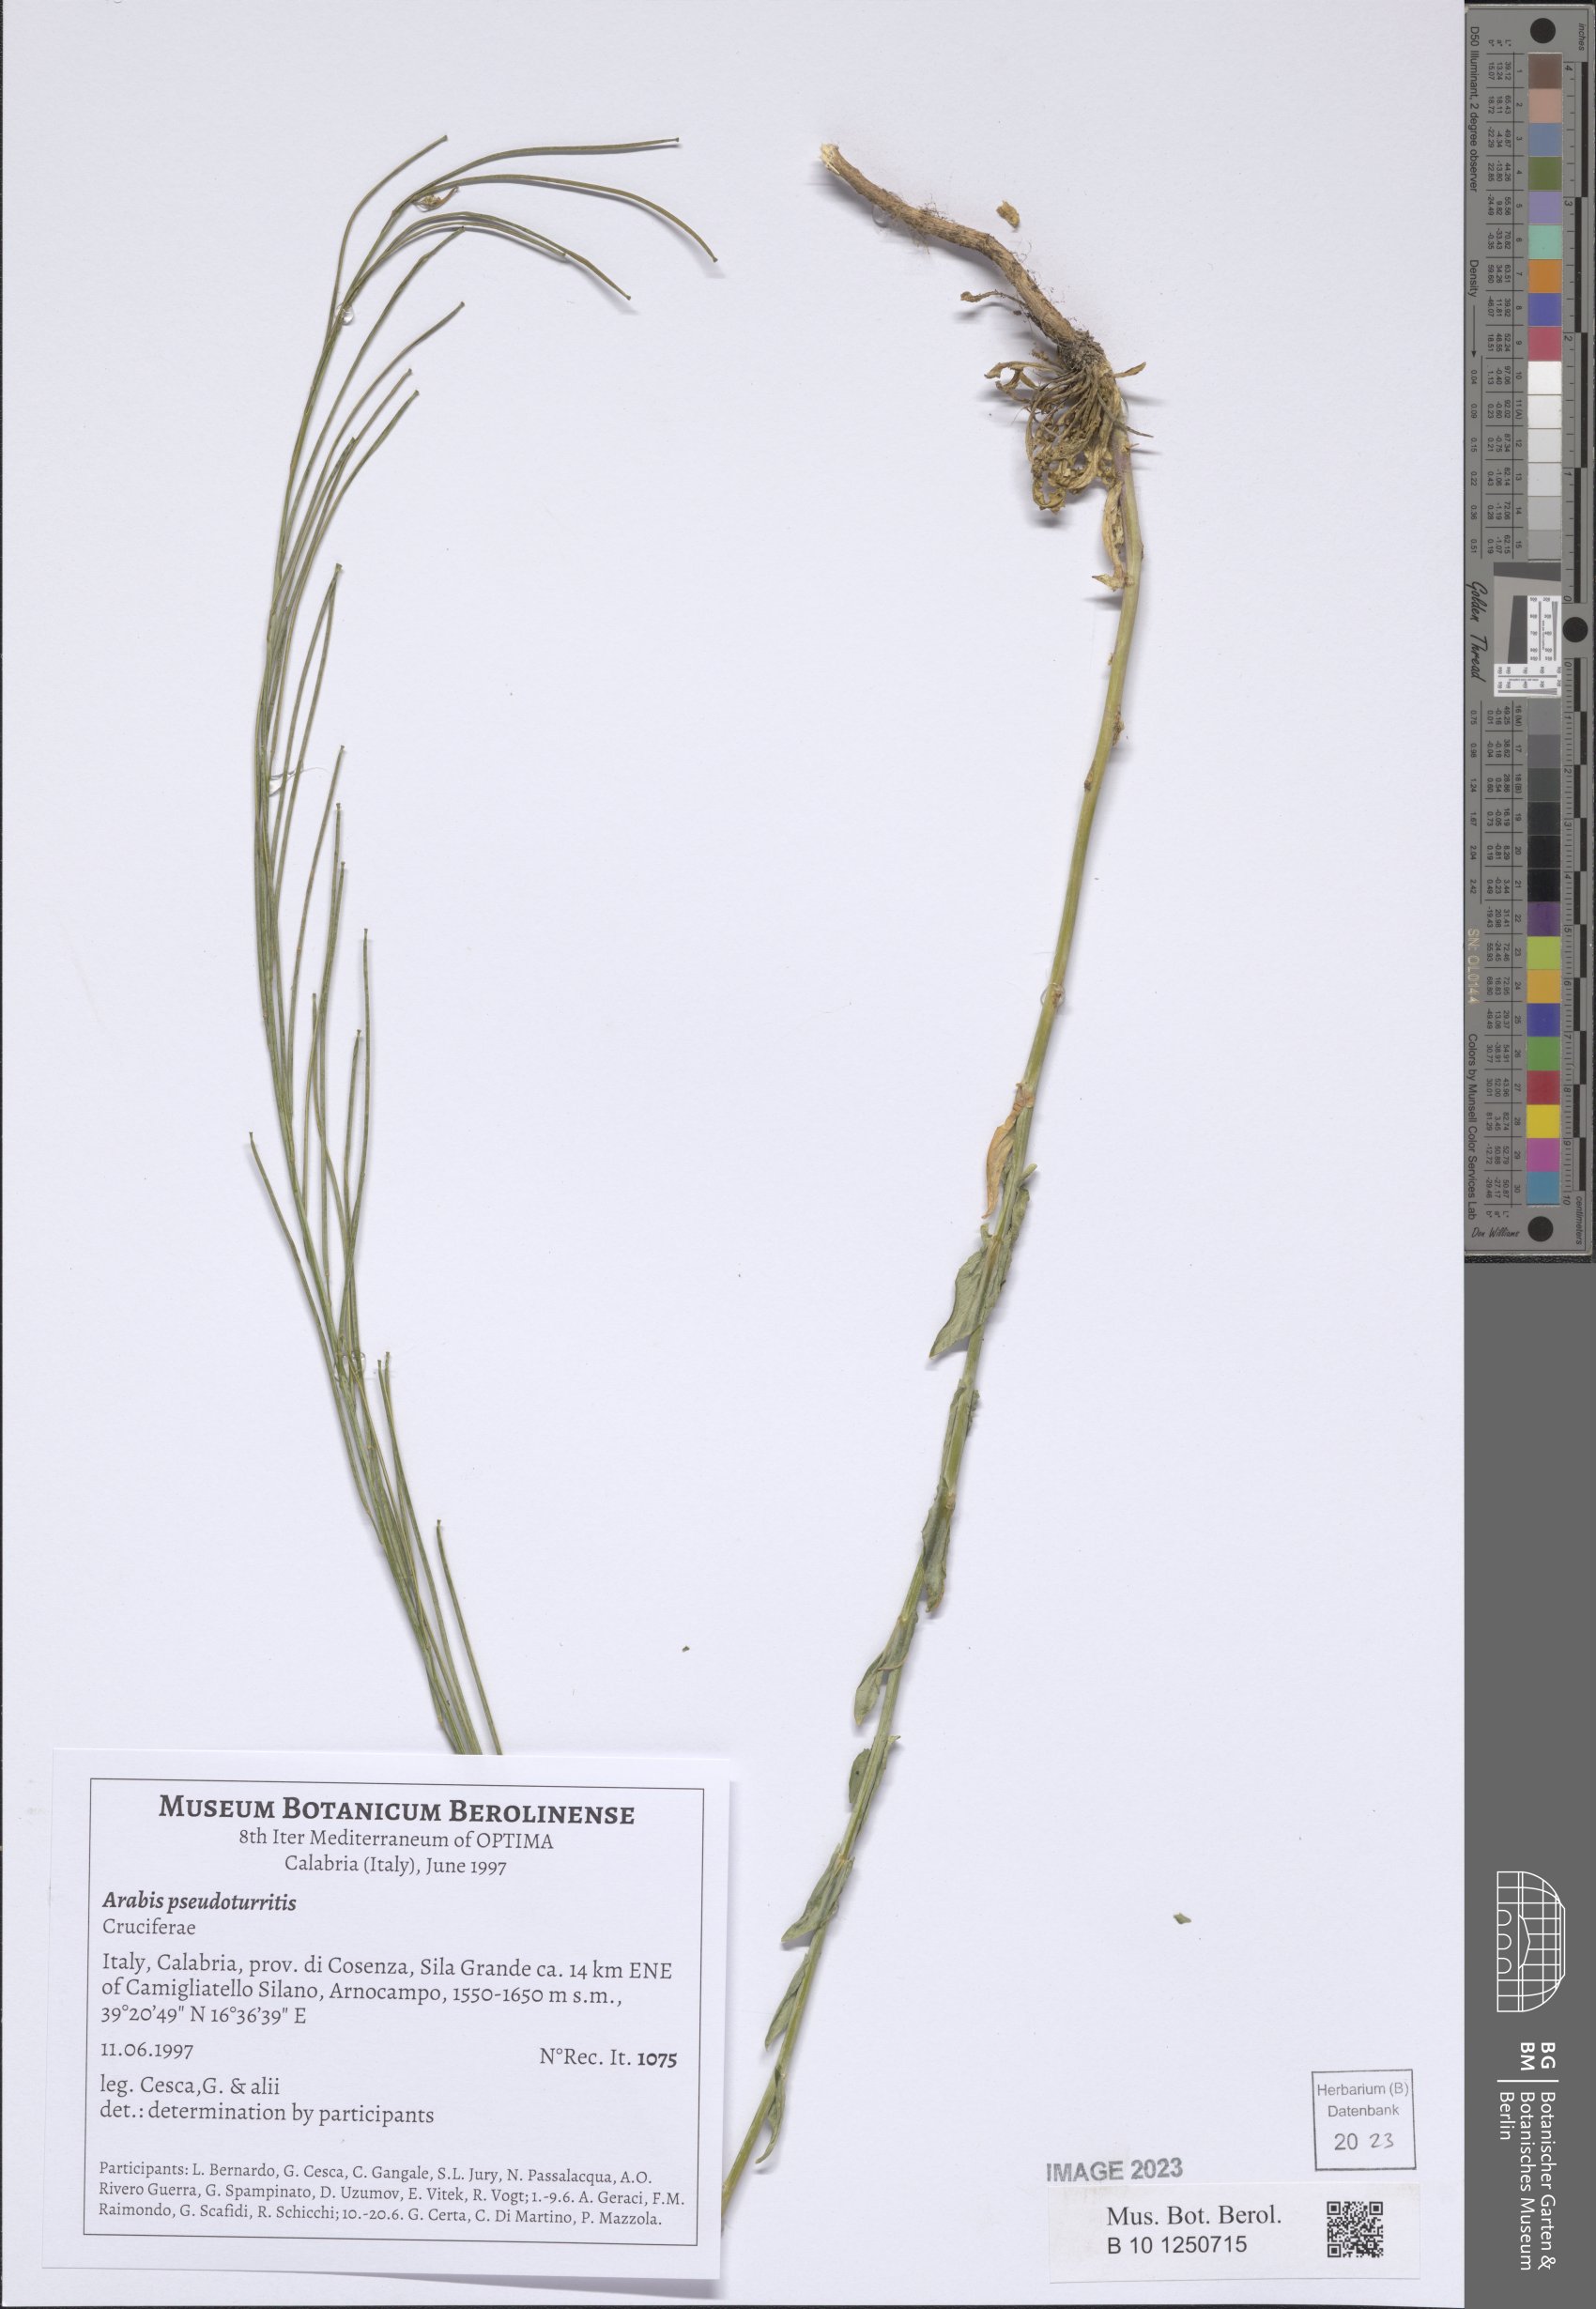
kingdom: Plantae
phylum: Tracheophyta
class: Magnoliopsida
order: Brassicales
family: Brassicaceae
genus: Turritis
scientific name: Turritis glabra
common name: Tower rockcress
